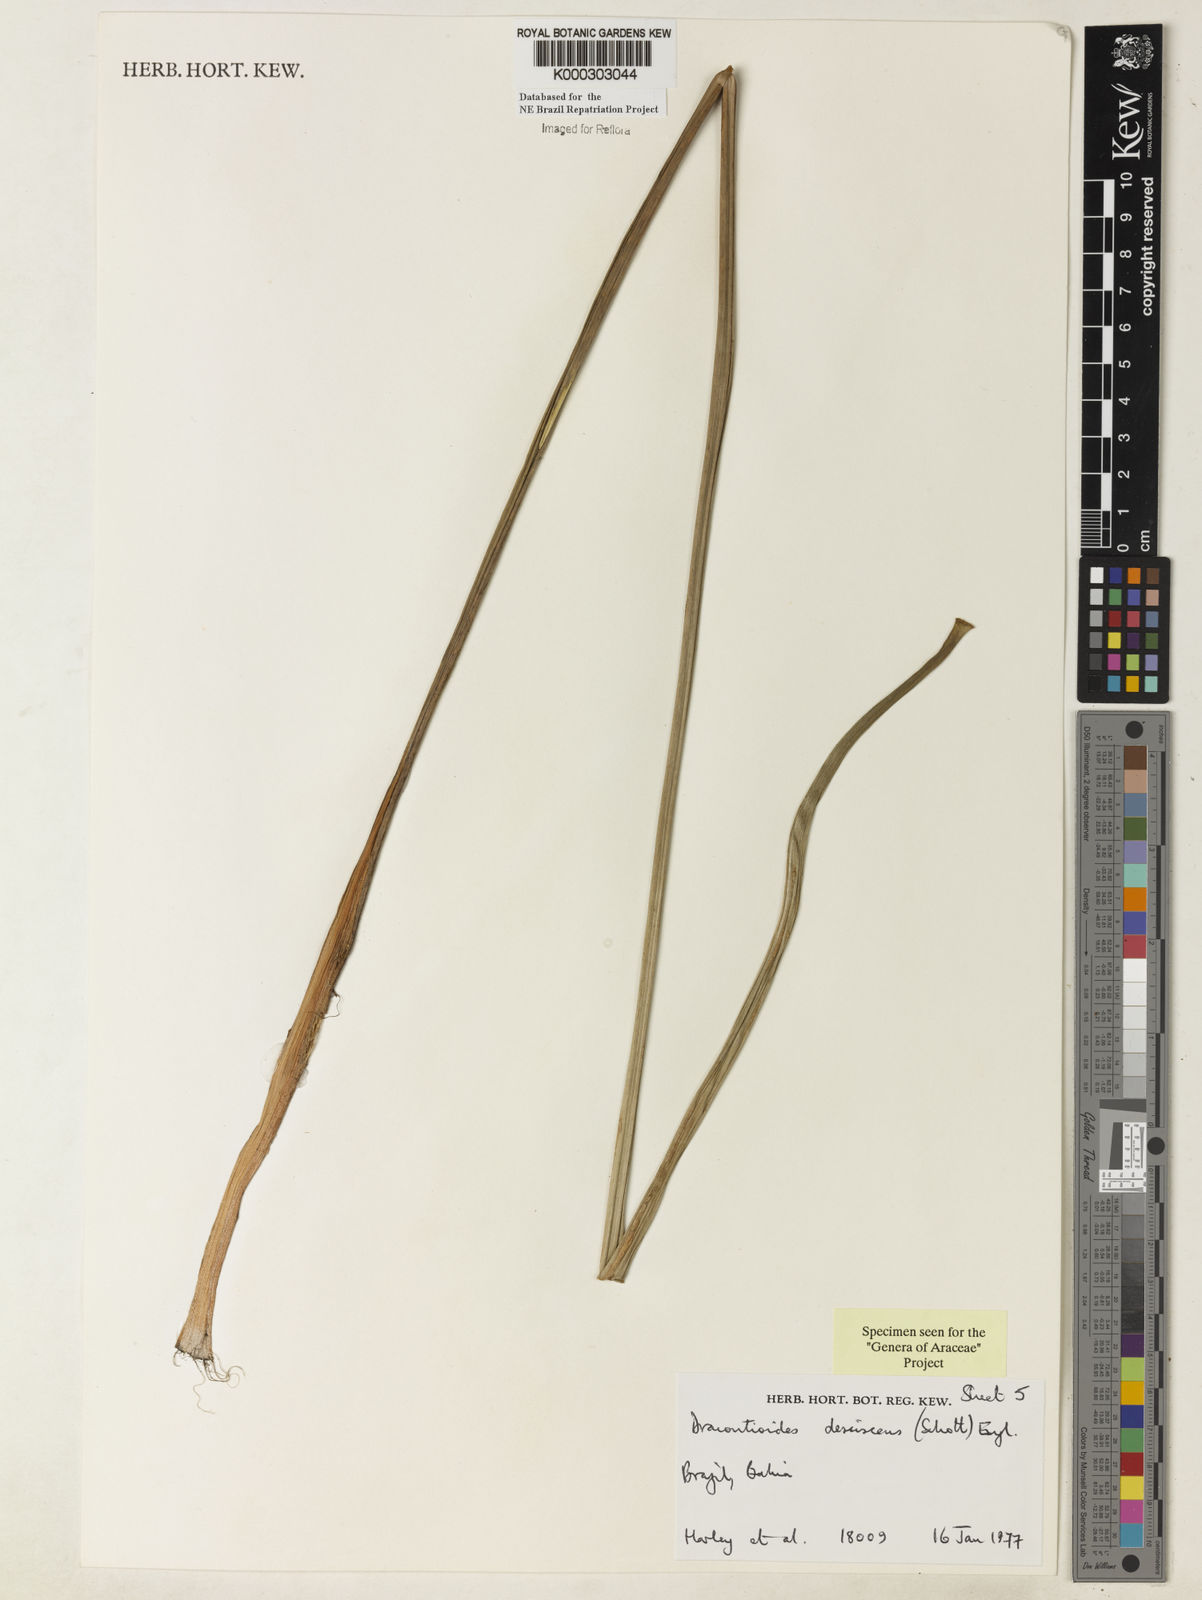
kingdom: Plantae
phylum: Tracheophyta
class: Liliopsida
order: Alismatales
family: Araceae
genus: Dracontioides
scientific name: Dracontioides desciscens
